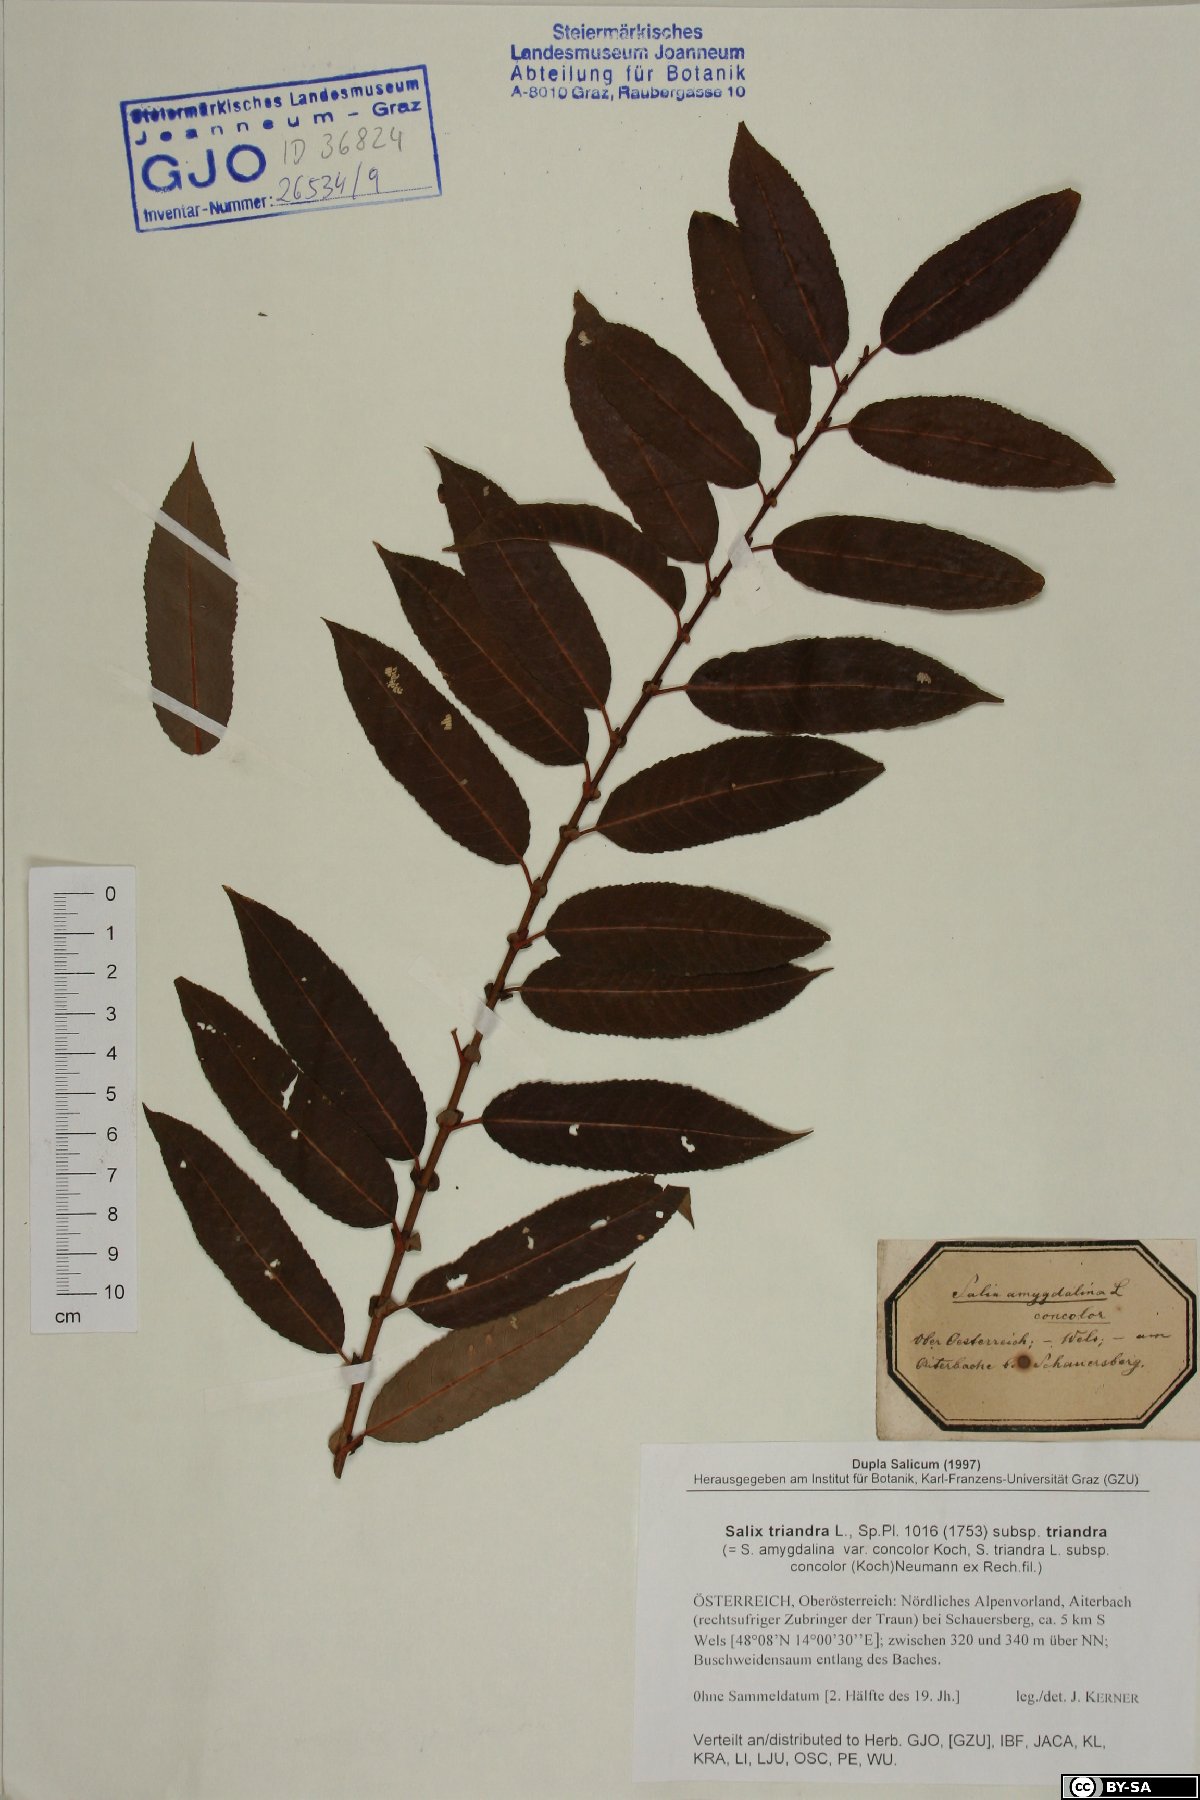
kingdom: Plantae
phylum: Tracheophyta
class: Magnoliopsida
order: Malpighiales
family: Salicaceae
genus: Salix
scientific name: Salix triandra
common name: Almond willow
